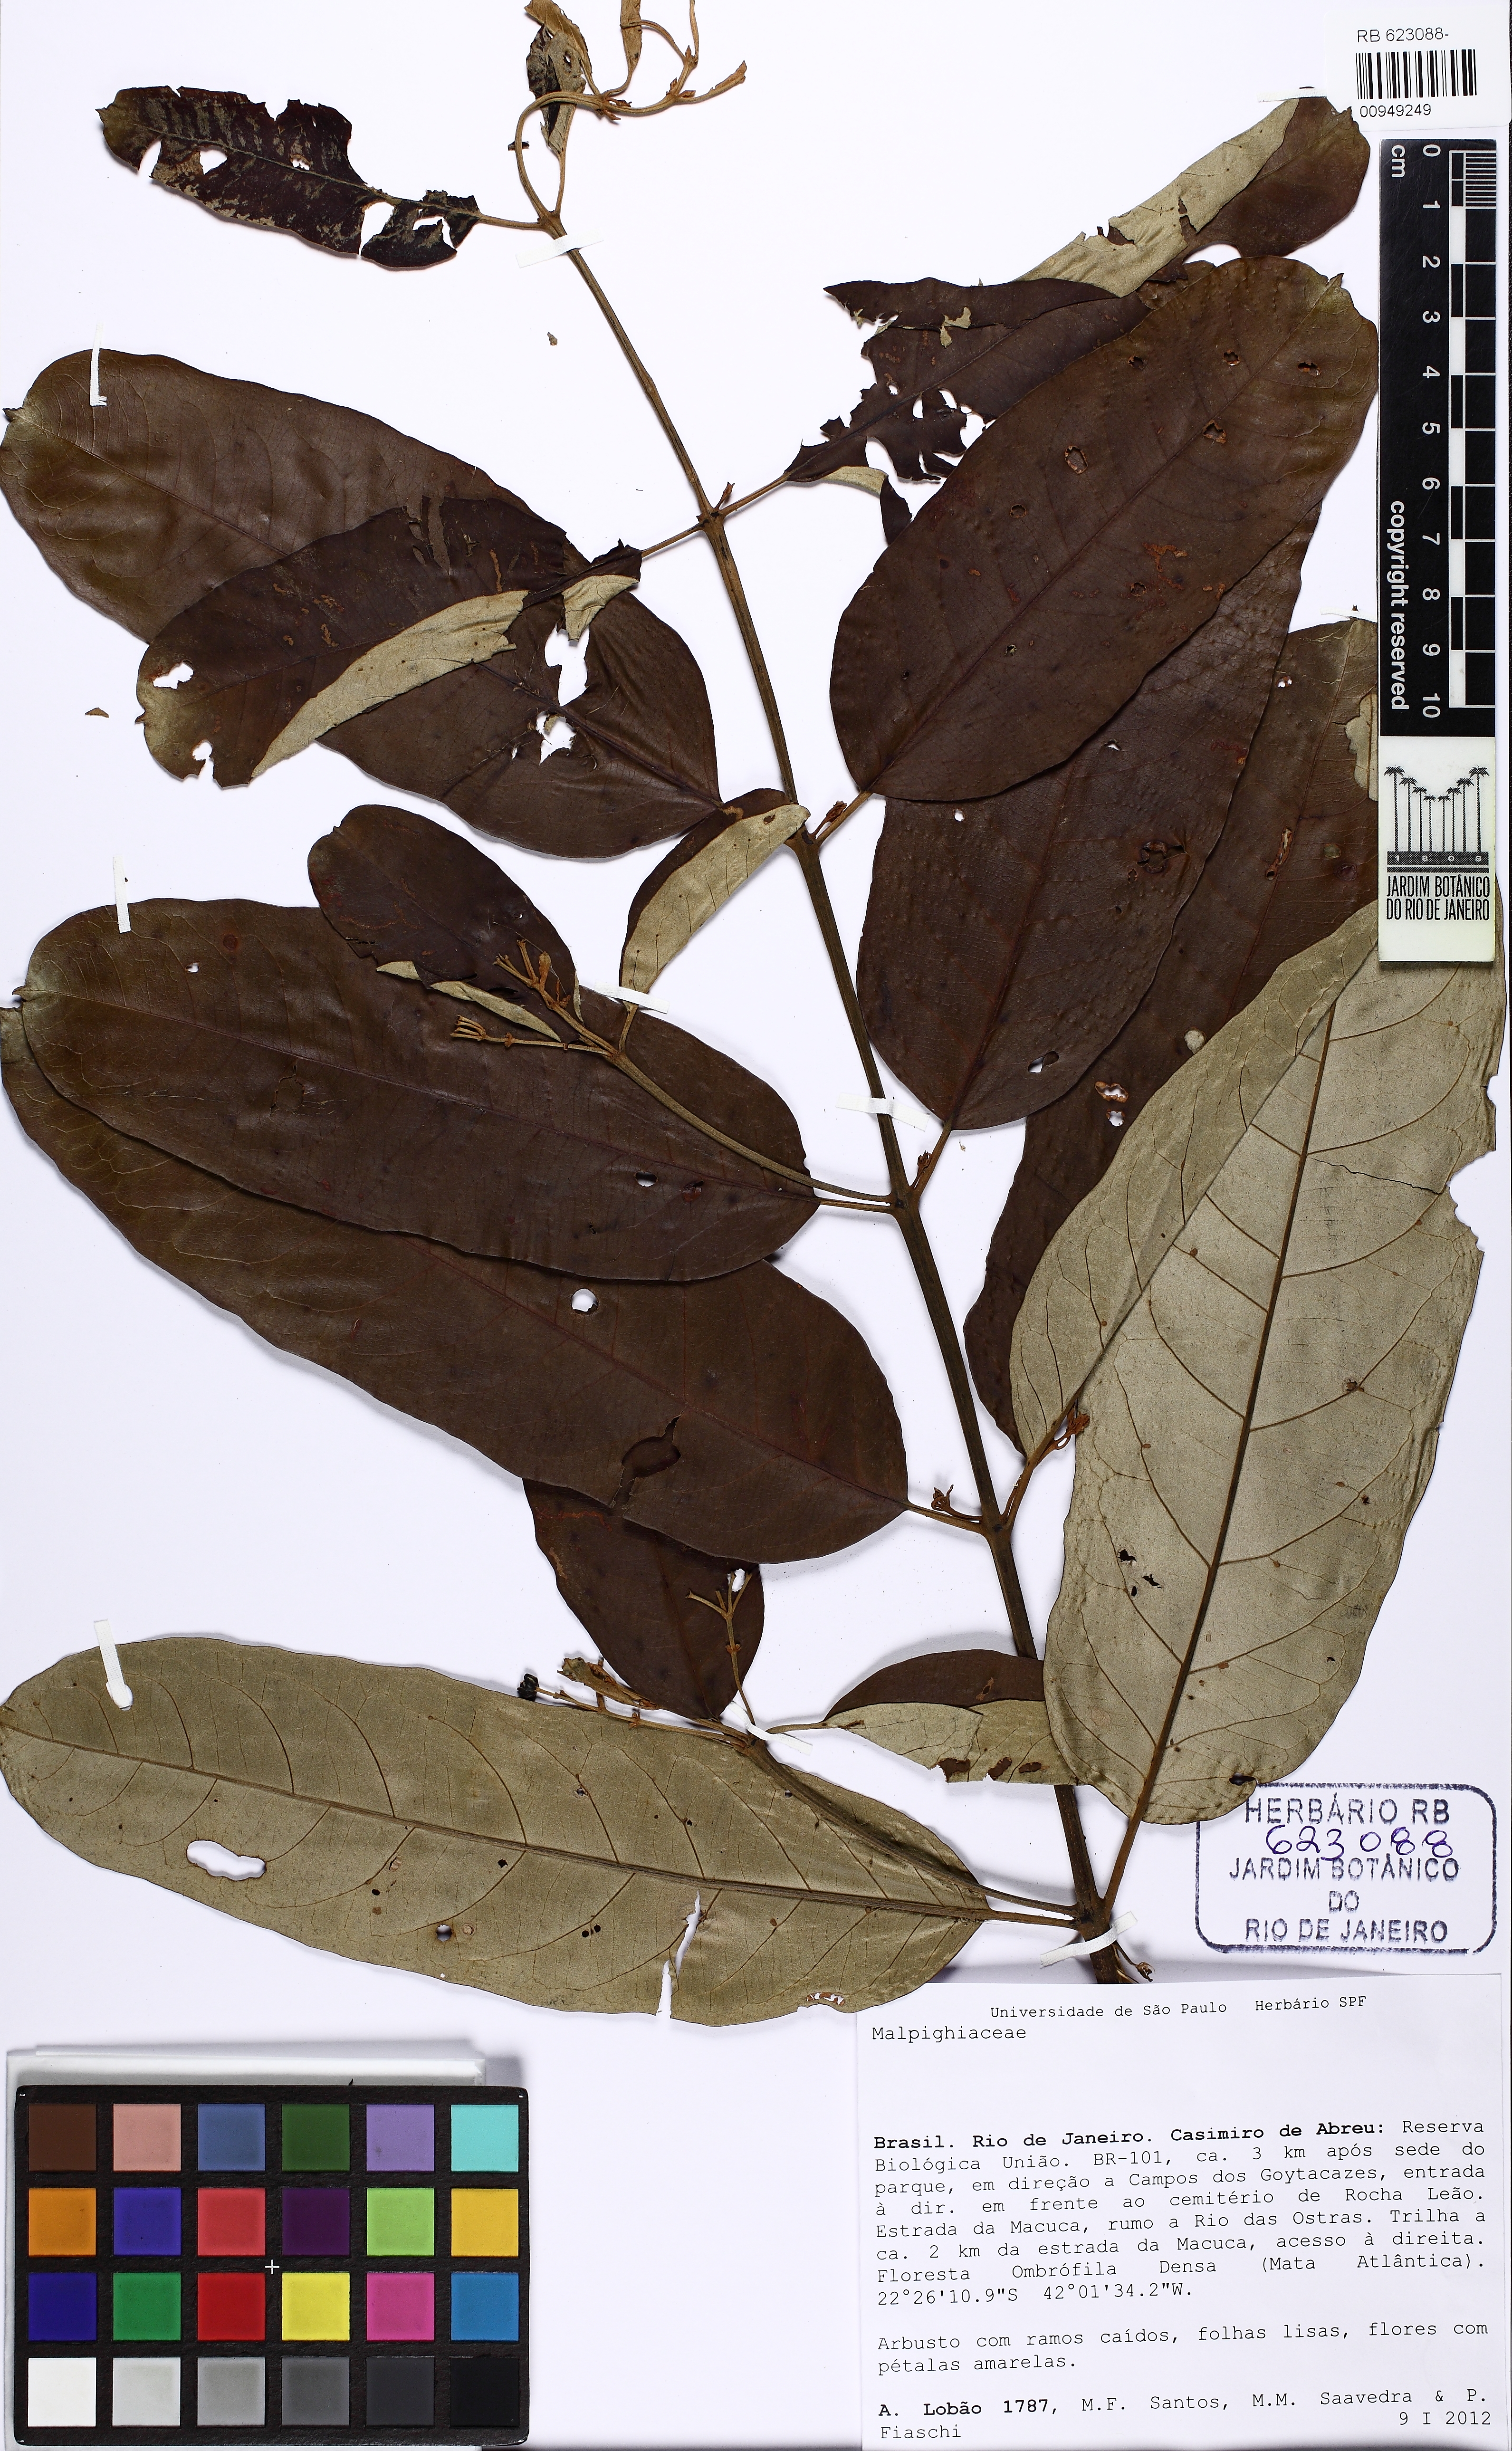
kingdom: Plantae
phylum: Tracheophyta
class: Magnoliopsida
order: Malpighiales
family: Malpighiaceae
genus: Heteropterys
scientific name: Heteropterys nitida
